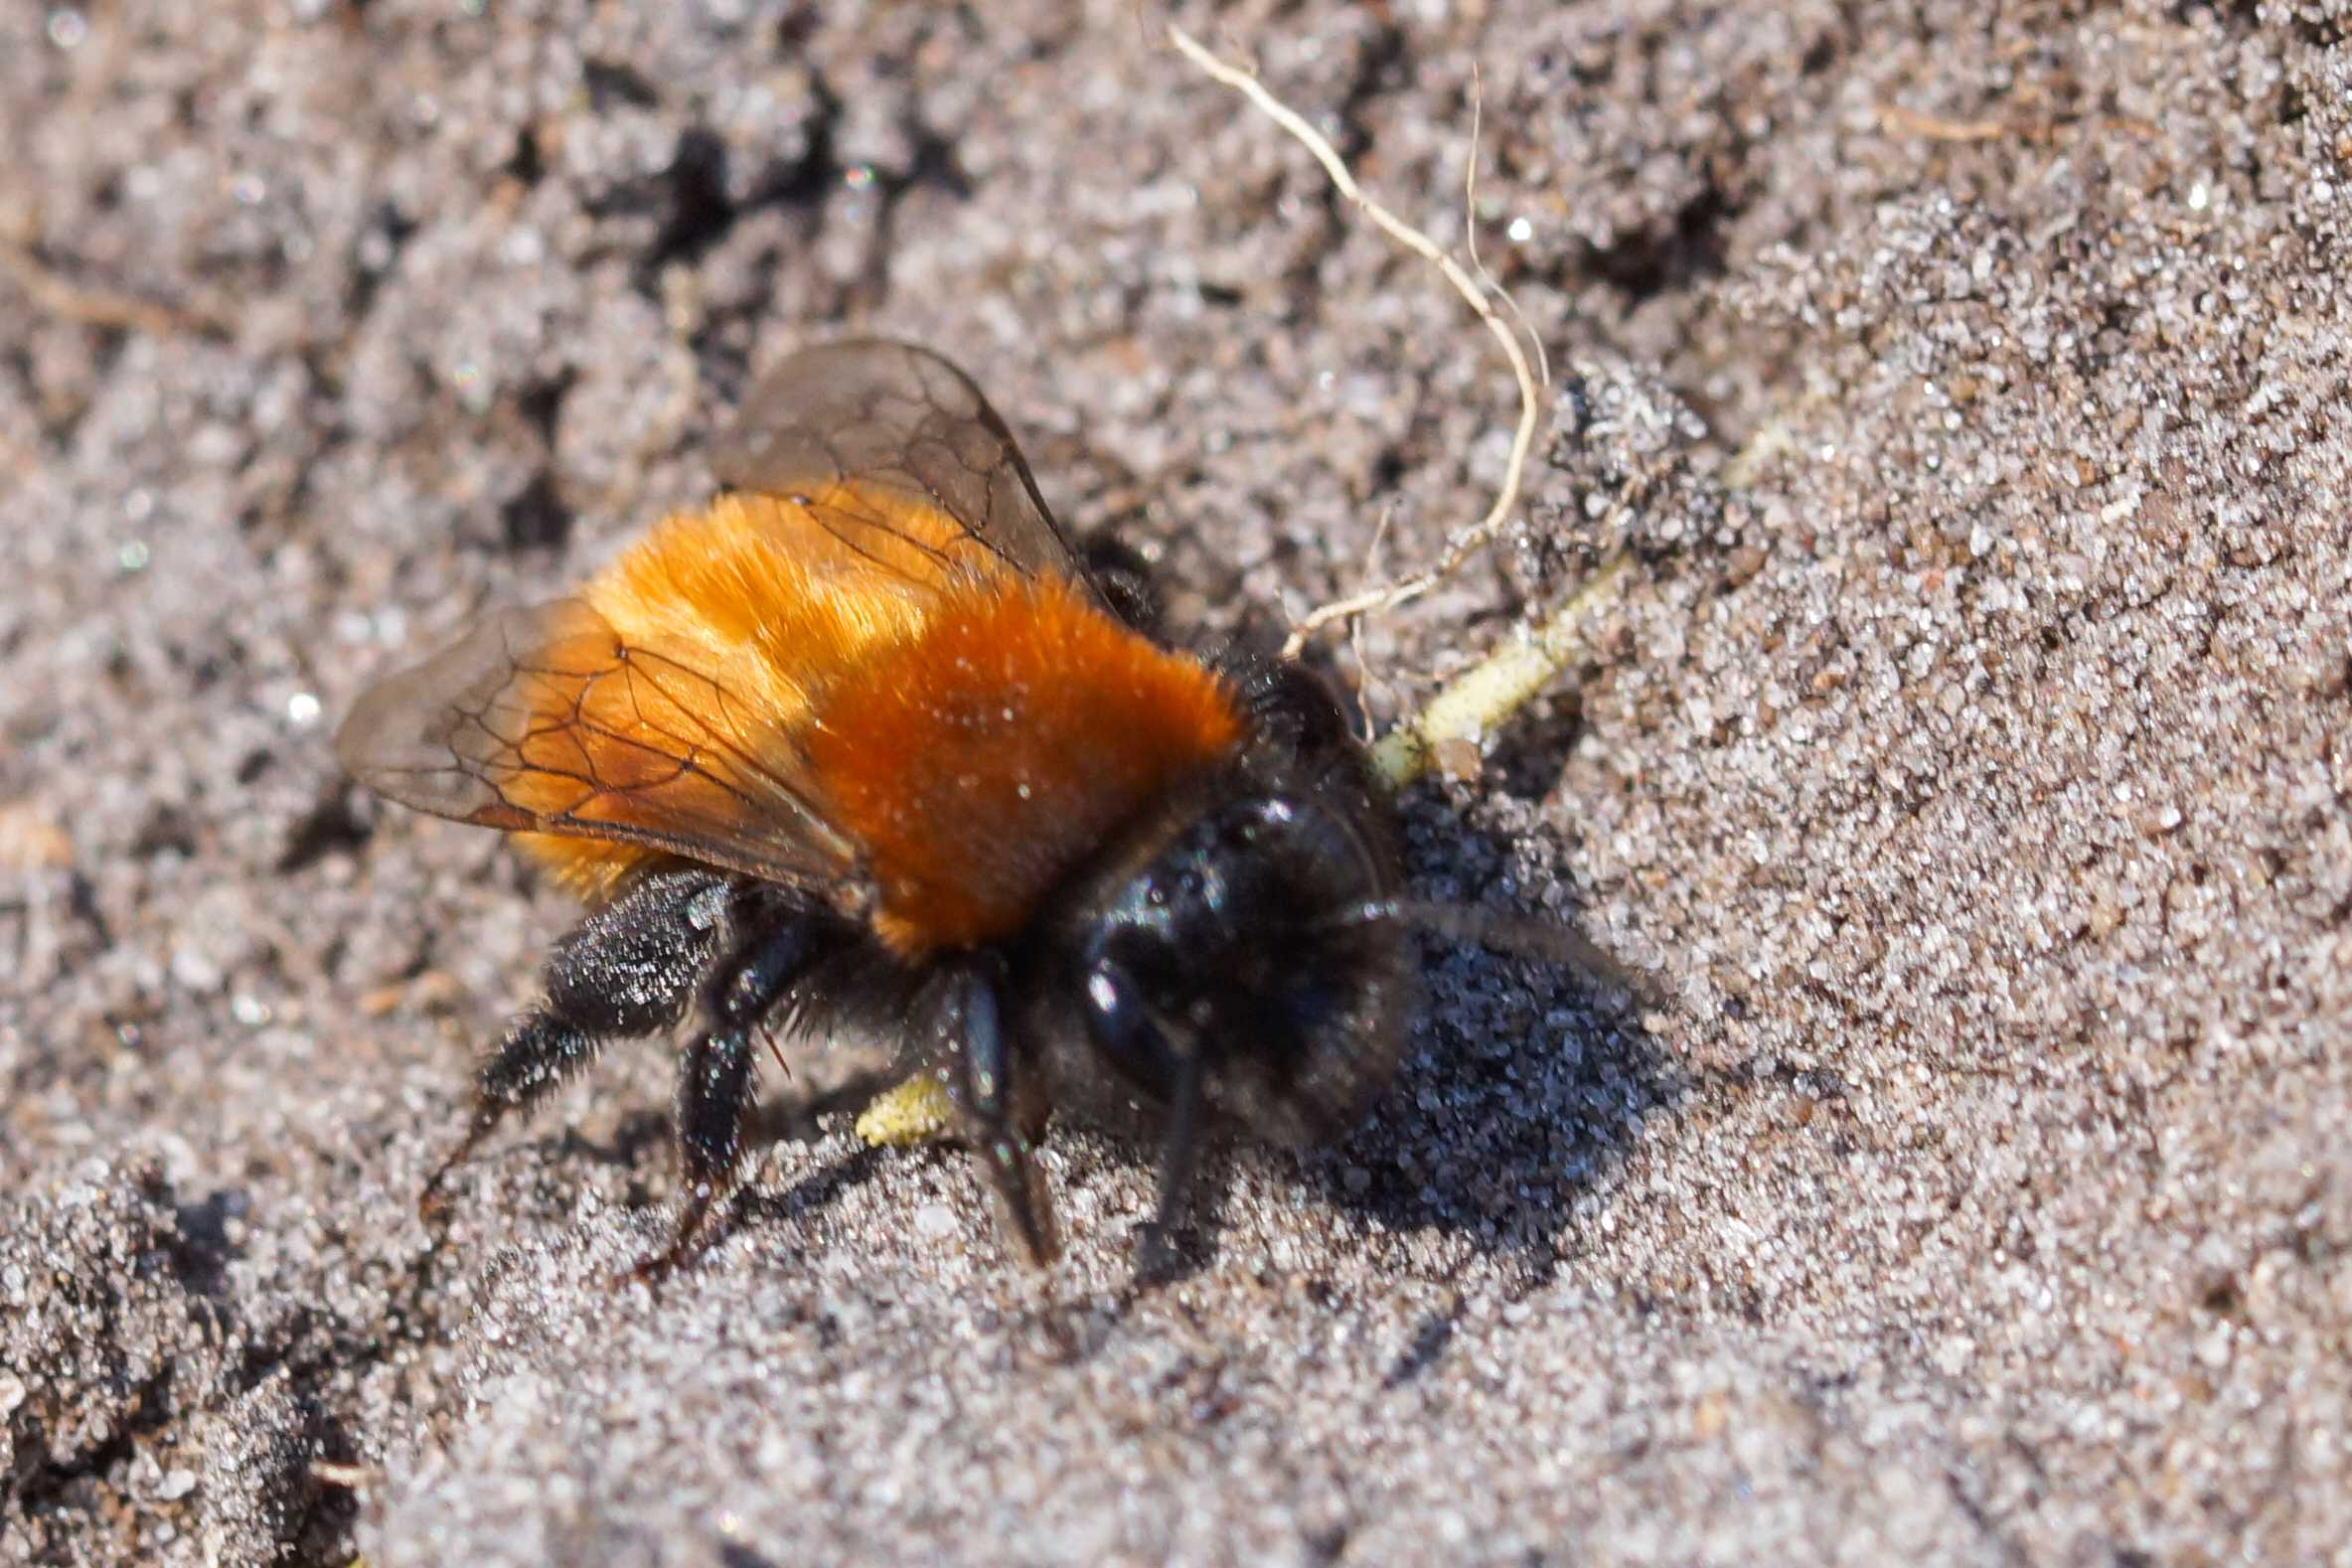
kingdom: Animalia
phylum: Arthropoda
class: Insecta
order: Hymenoptera
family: Andrenidae
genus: Andrena
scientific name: Andrena fulva
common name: Rødpelset jordbi
